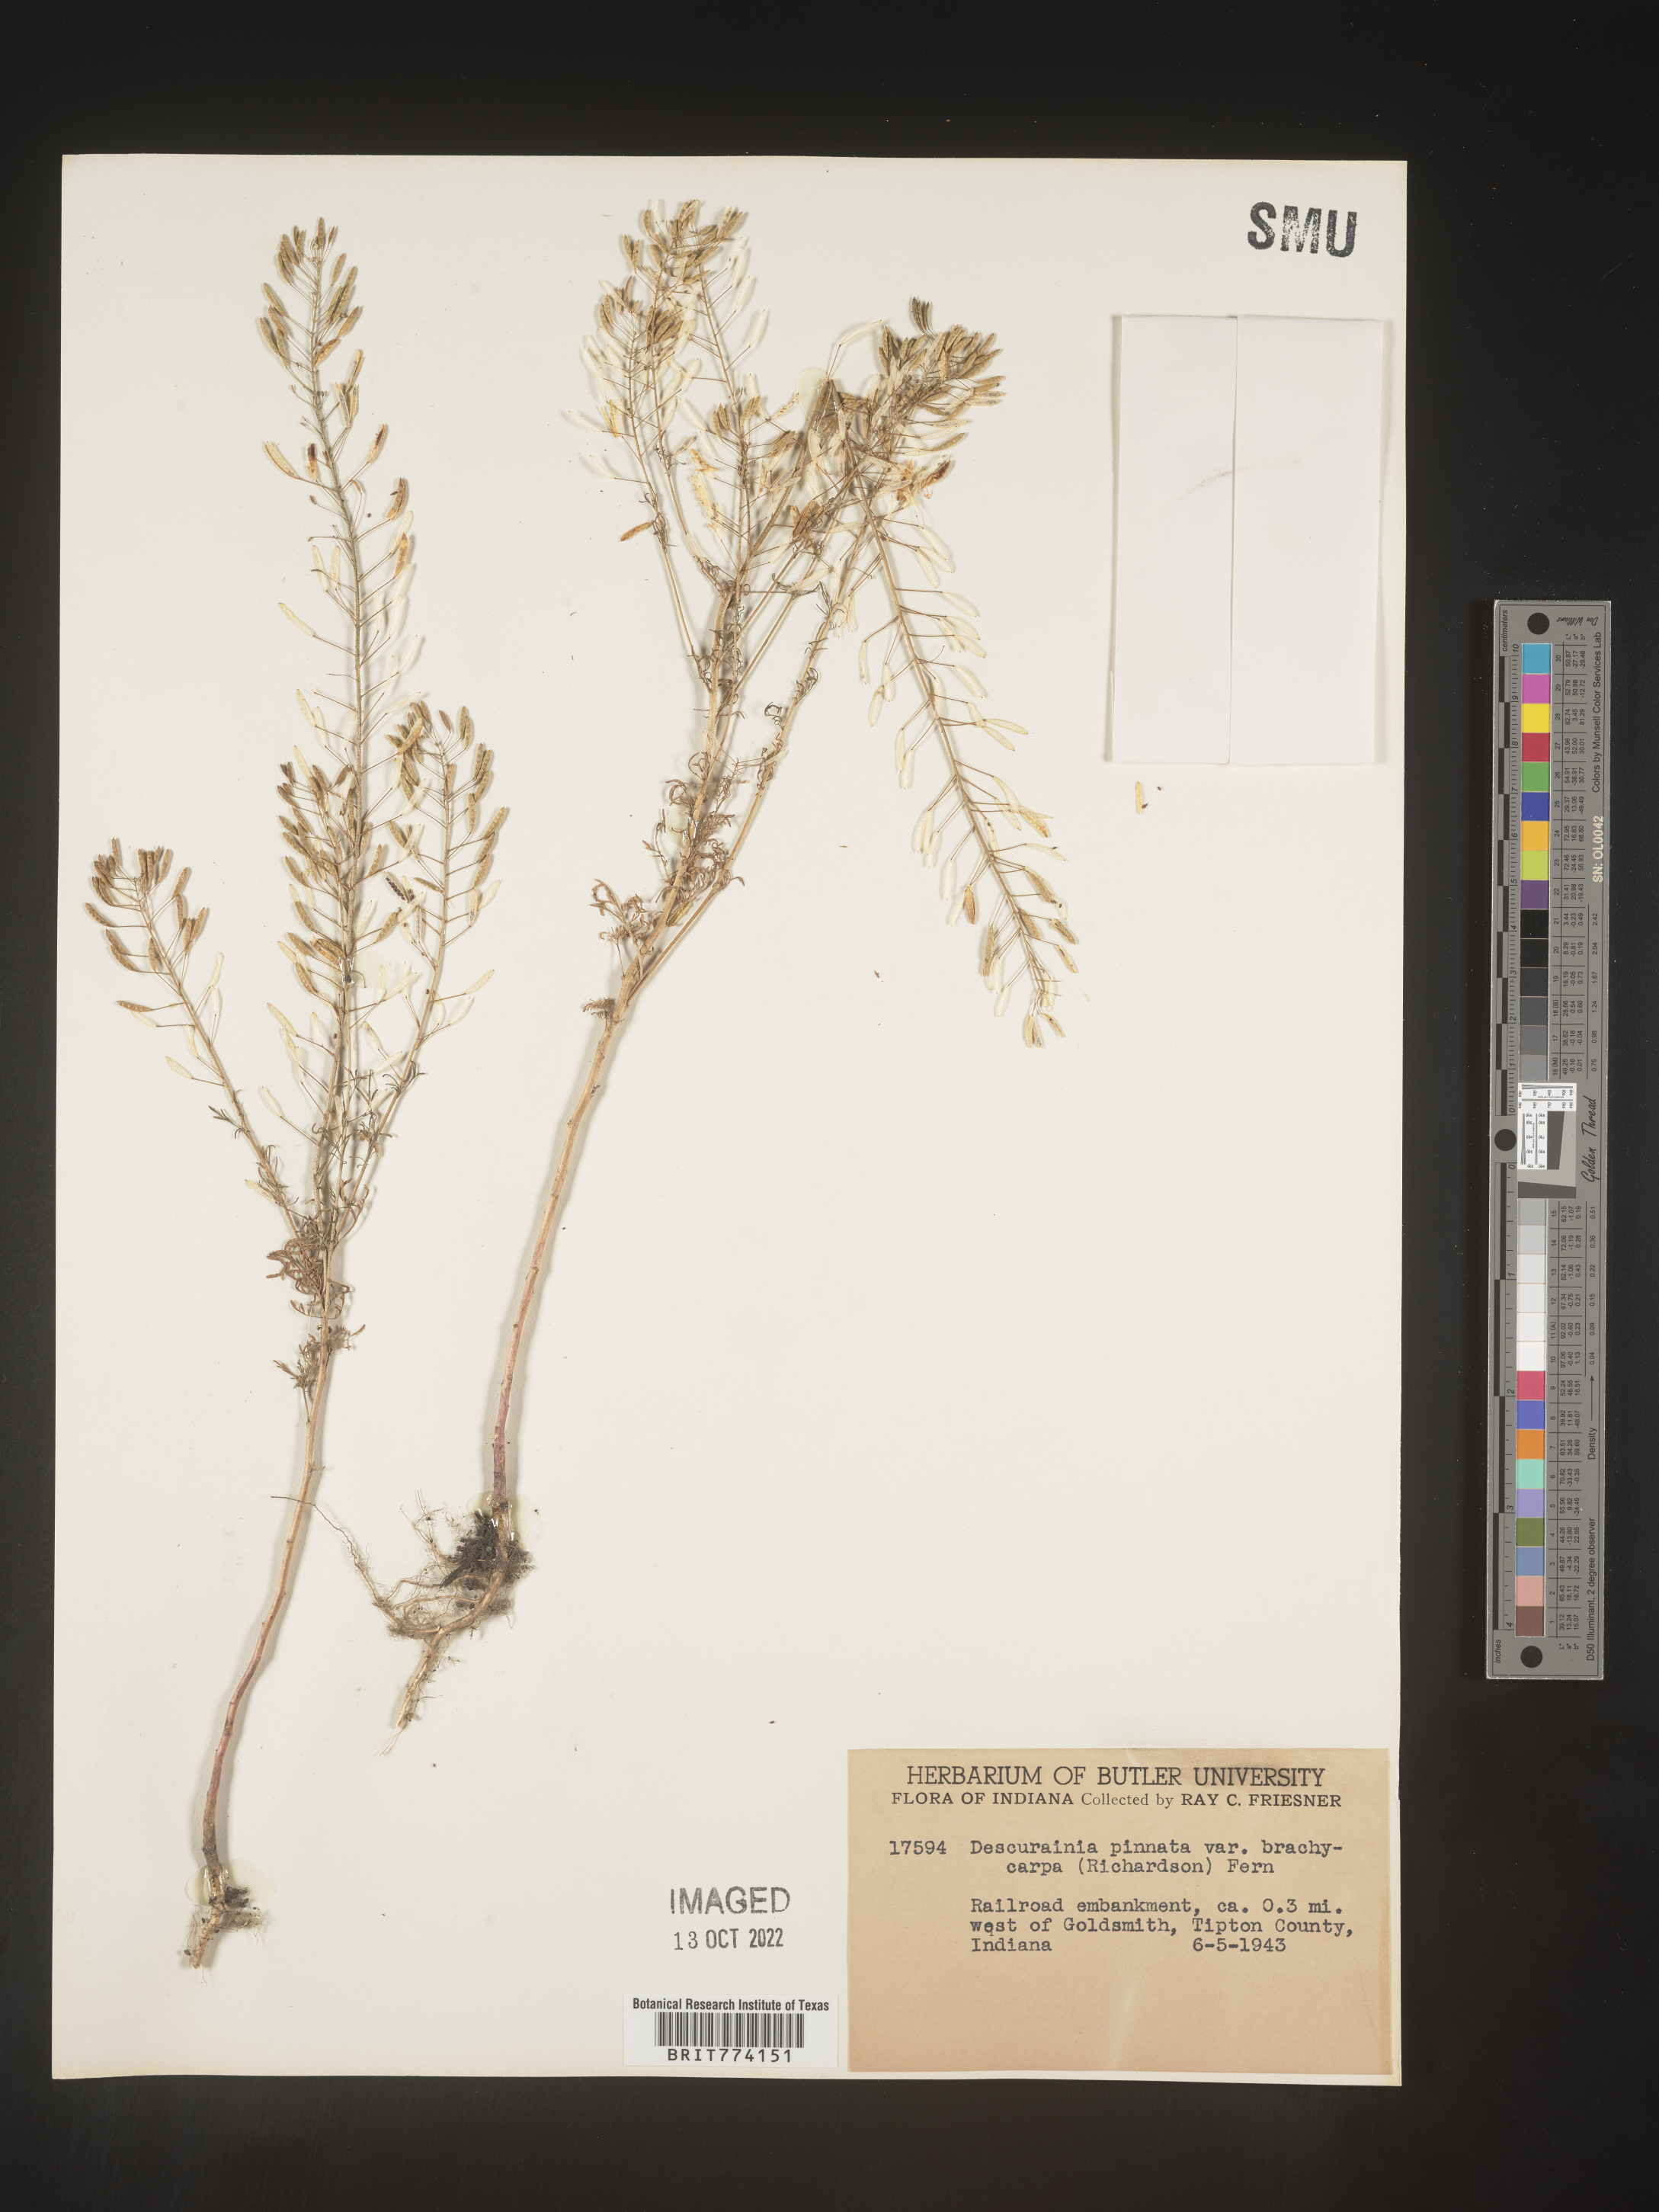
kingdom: Plantae
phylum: Tracheophyta
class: Magnoliopsida
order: Brassicales
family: Brassicaceae
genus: Descurainia
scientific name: Descurainia pinnata
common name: Western tansy mustard
